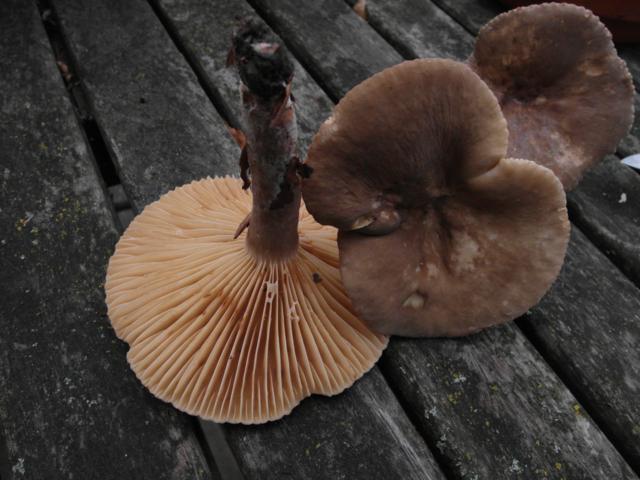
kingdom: Fungi
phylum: Basidiomycota
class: Agaricomycetes
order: Russulales
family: Russulaceae
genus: Lactarius
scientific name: Lactarius romagnesii
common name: fjernbladet mælkehat
